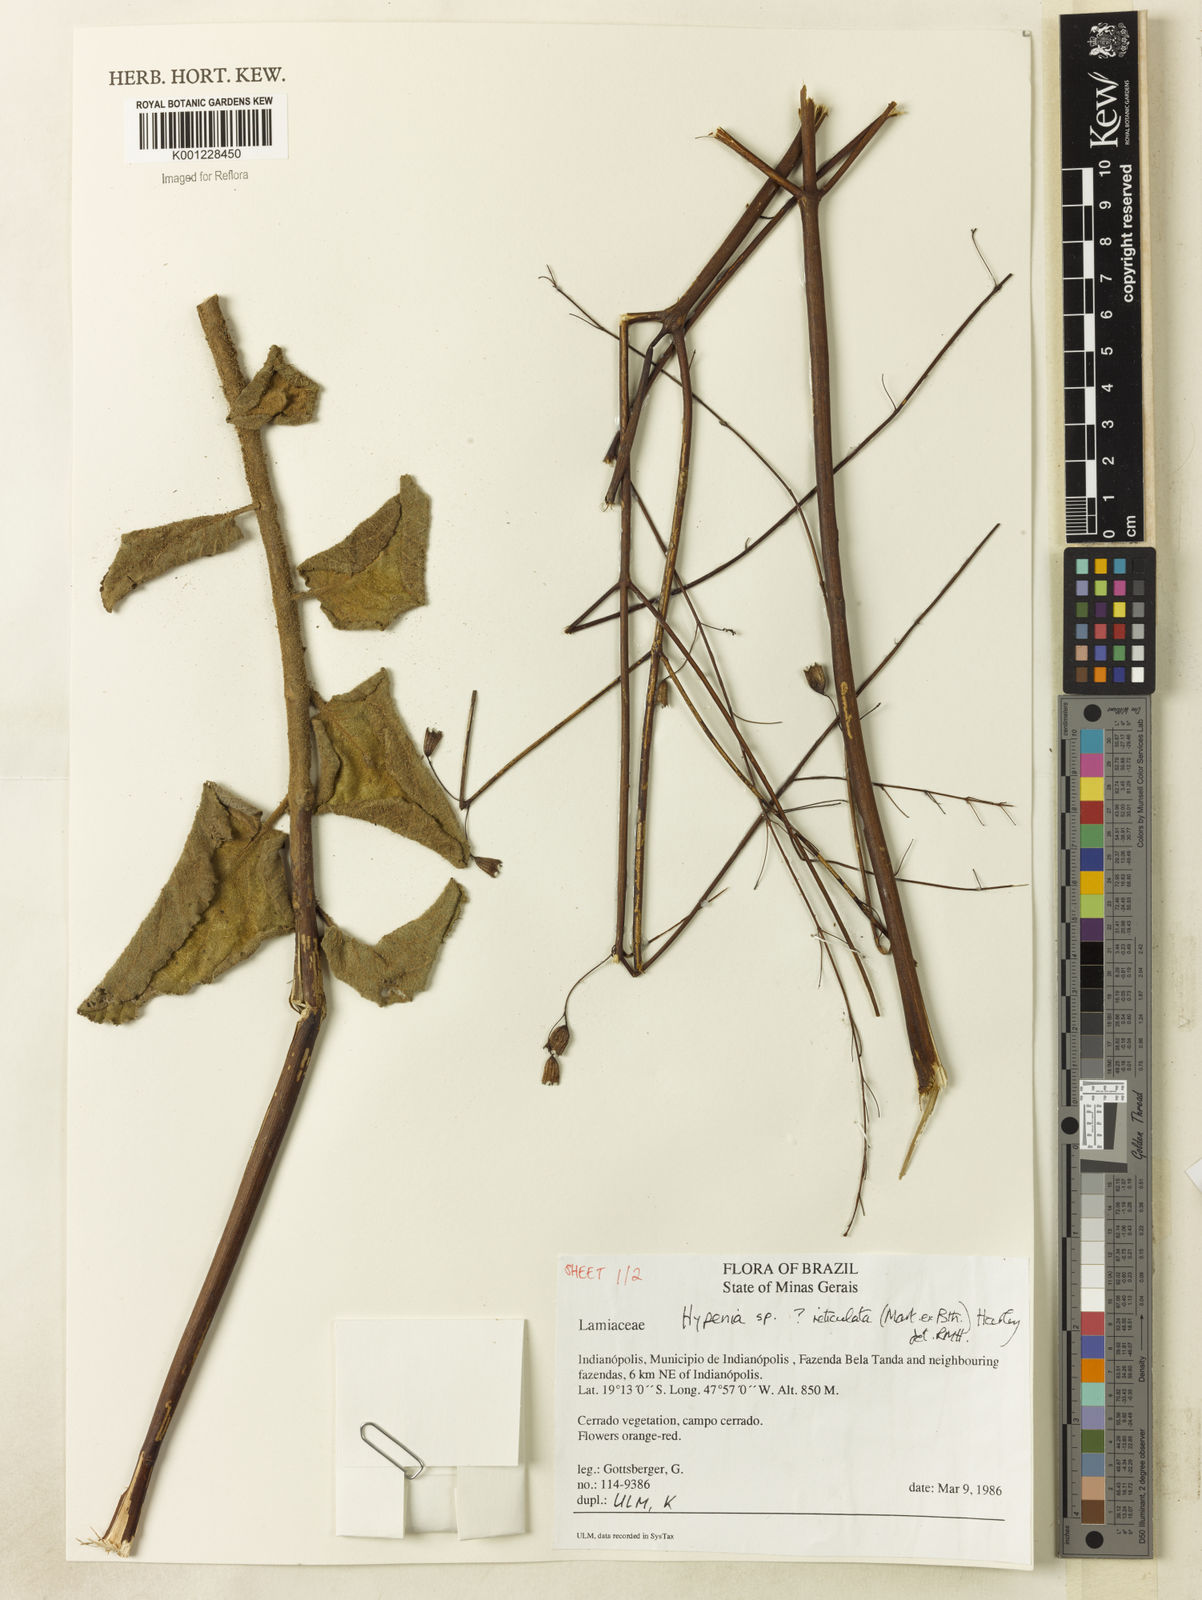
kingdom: Plantae
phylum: Tracheophyta
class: Magnoliopsida
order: Lamiales
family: Lamiaceae
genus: Hypenia
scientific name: Hypenia reticulata
